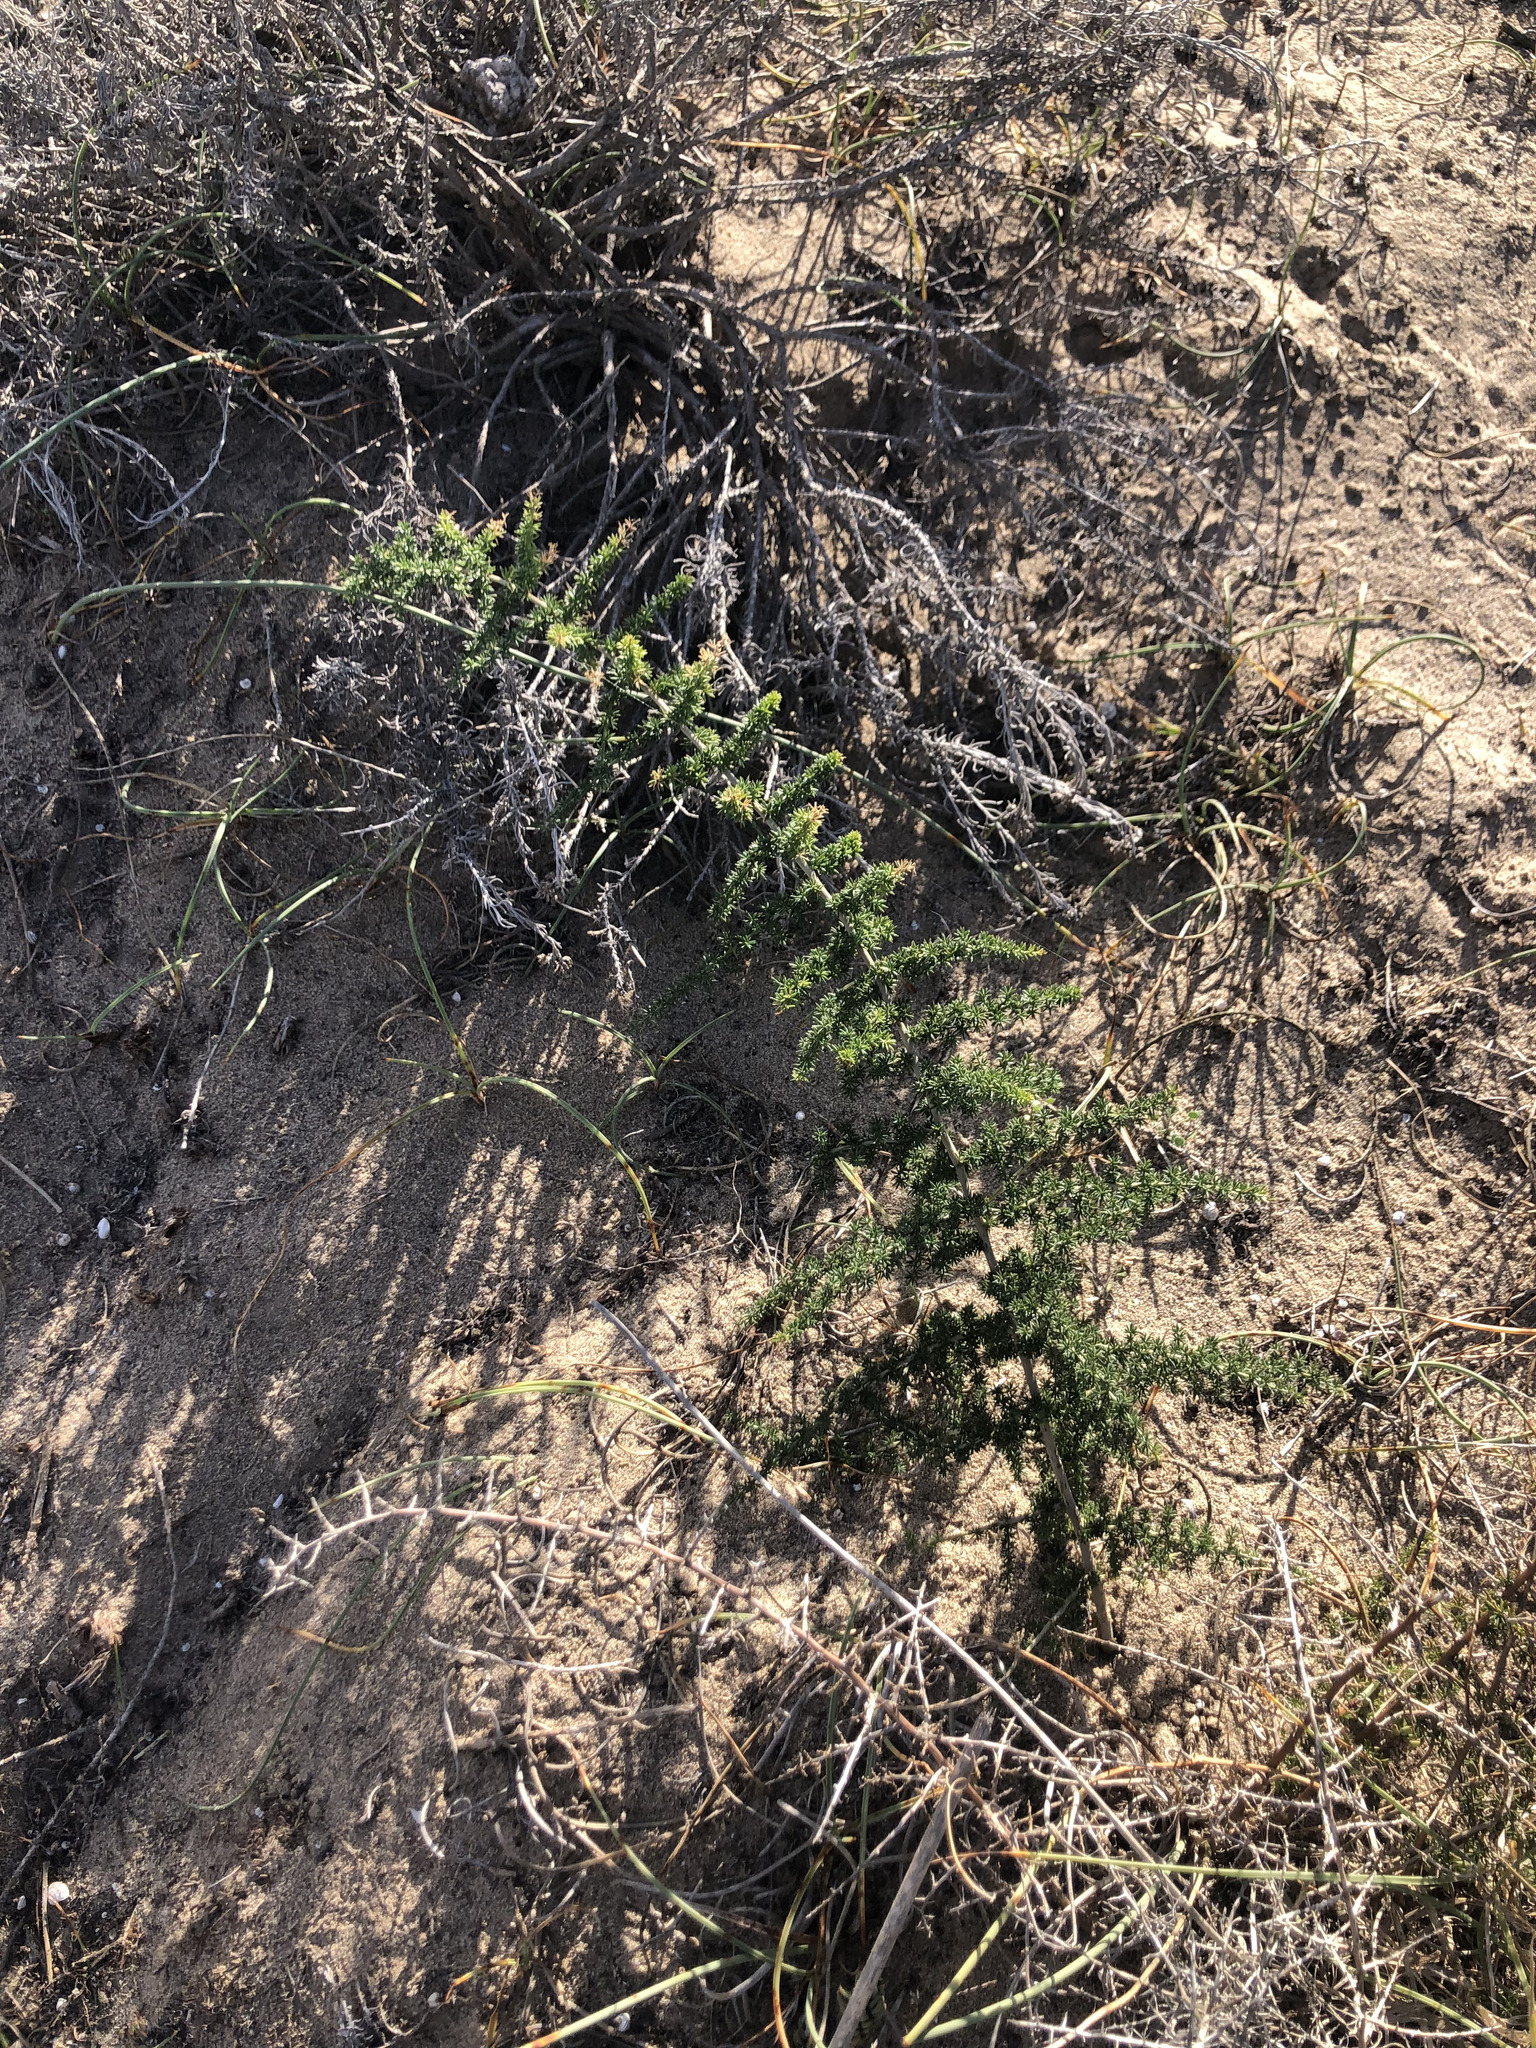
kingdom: Plantae
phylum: Tracheophyta
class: Liliopsida
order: Asparagales
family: Asparagaceae
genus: Asparagus
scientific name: Asparagus acutifolius
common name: Wild asparagus
